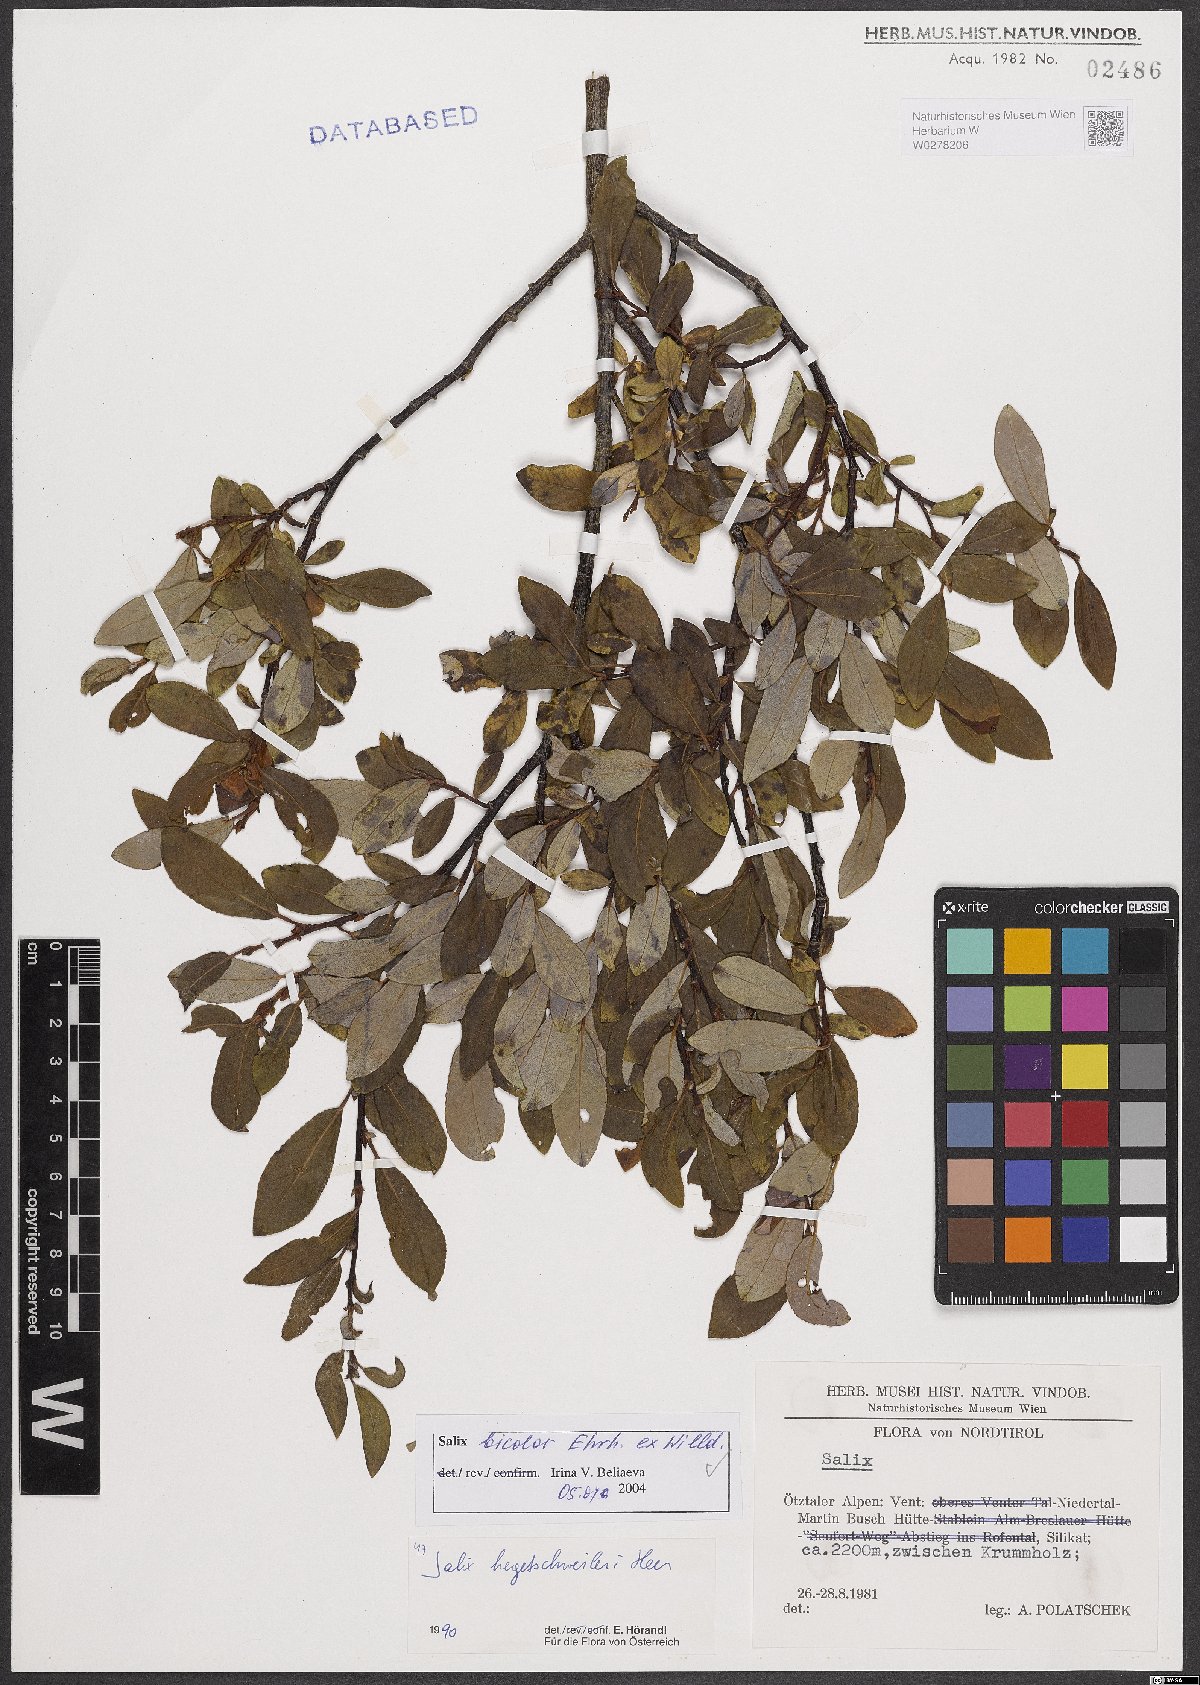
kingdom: Plantae
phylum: Tracheophyta
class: Magnoliopsida
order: Malpighiales
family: Salicaceae
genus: Salix
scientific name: Salix bicolor
